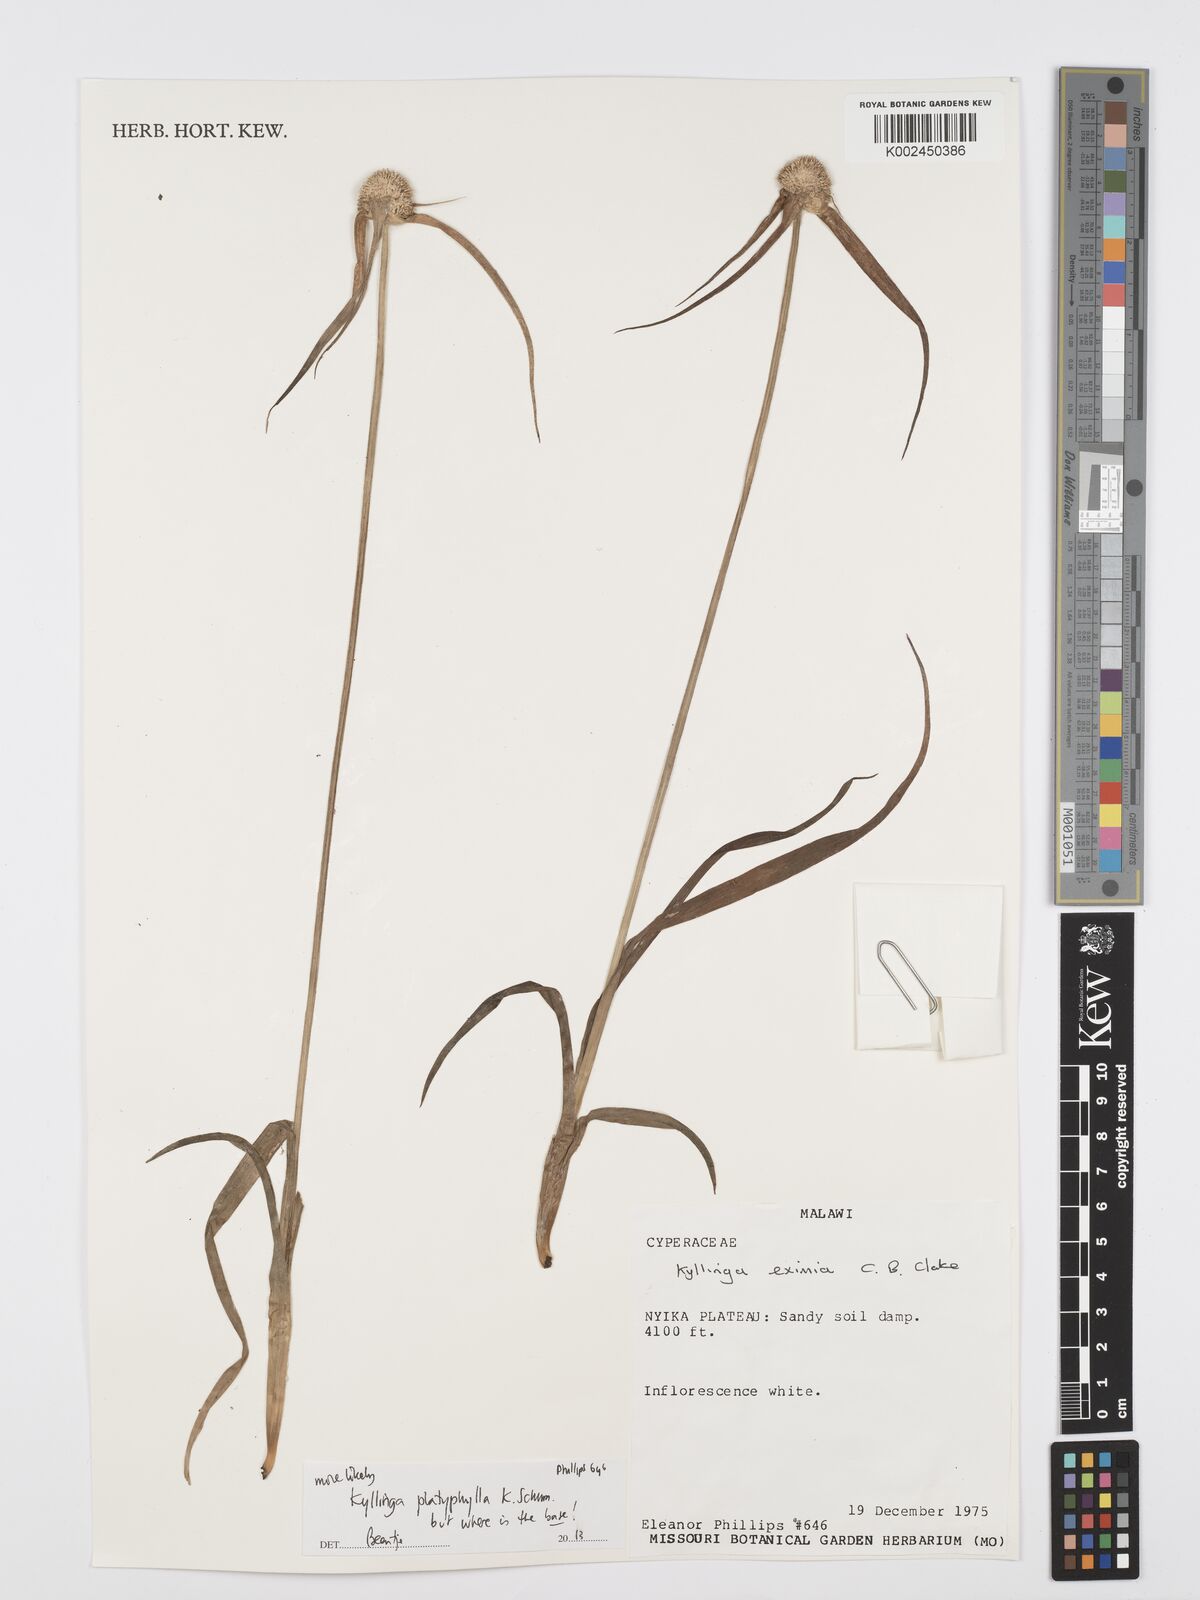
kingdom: Plantae
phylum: Tracheophyta
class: Liliopsida
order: Poales
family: Cyperaceae
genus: Cyperus
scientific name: Cyperus
